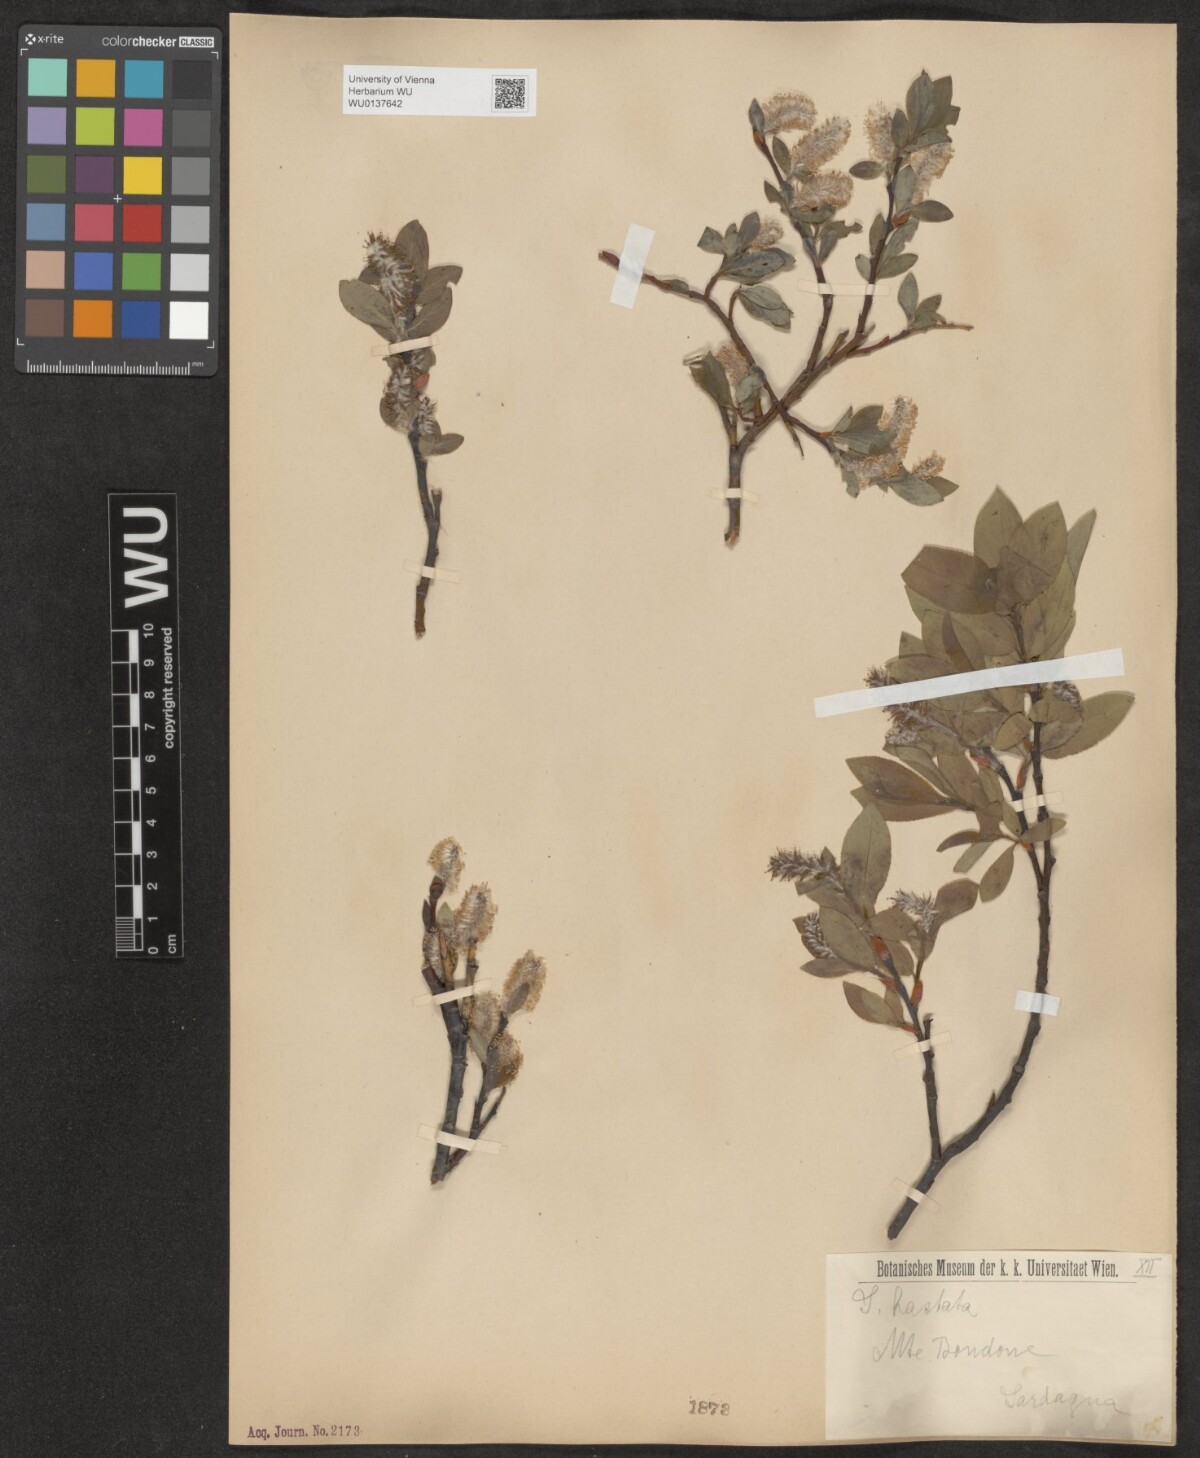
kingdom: Plantae
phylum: Tracheophyta
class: Magnoliopsida
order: Malpighiales
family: Salicaceae
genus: Salix
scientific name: Salix hastata
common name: Halberd willow
